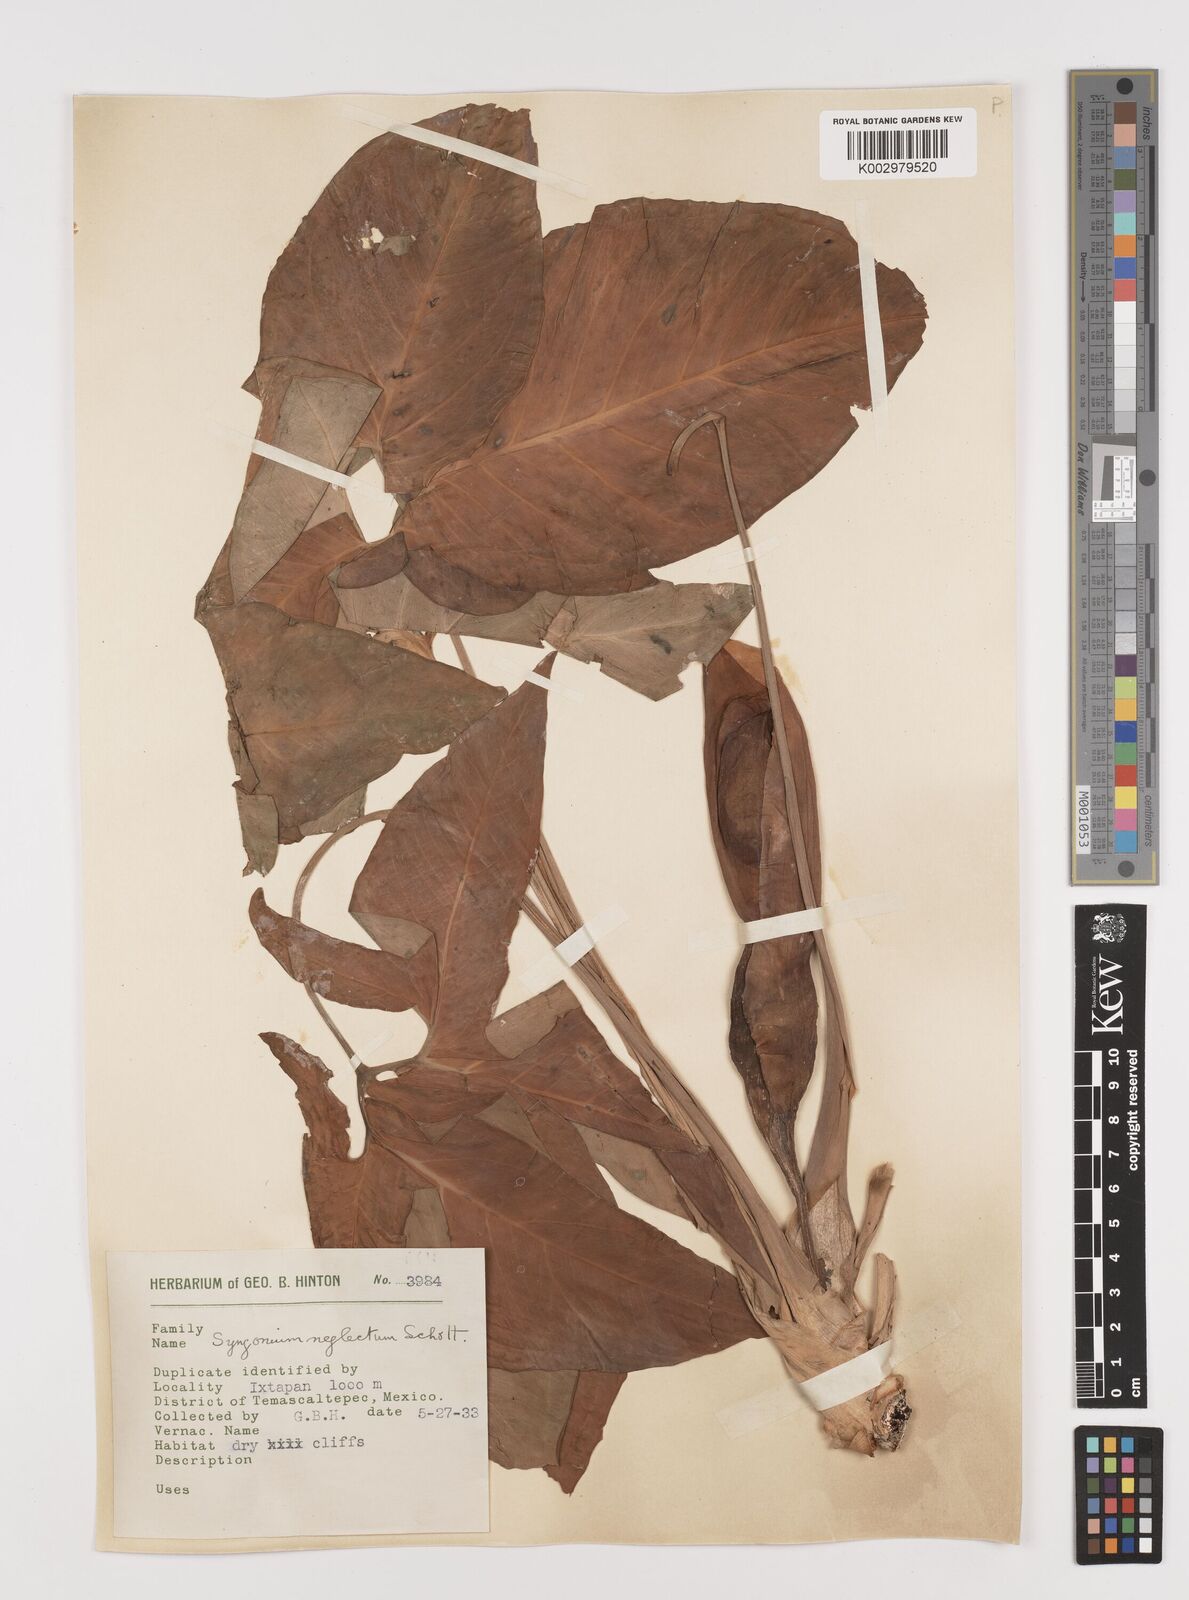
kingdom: Plantae
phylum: Tracheophyta
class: Liliopsida
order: Alismatales
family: Araceae
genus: Syngonium
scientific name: Syngonium neglectum
